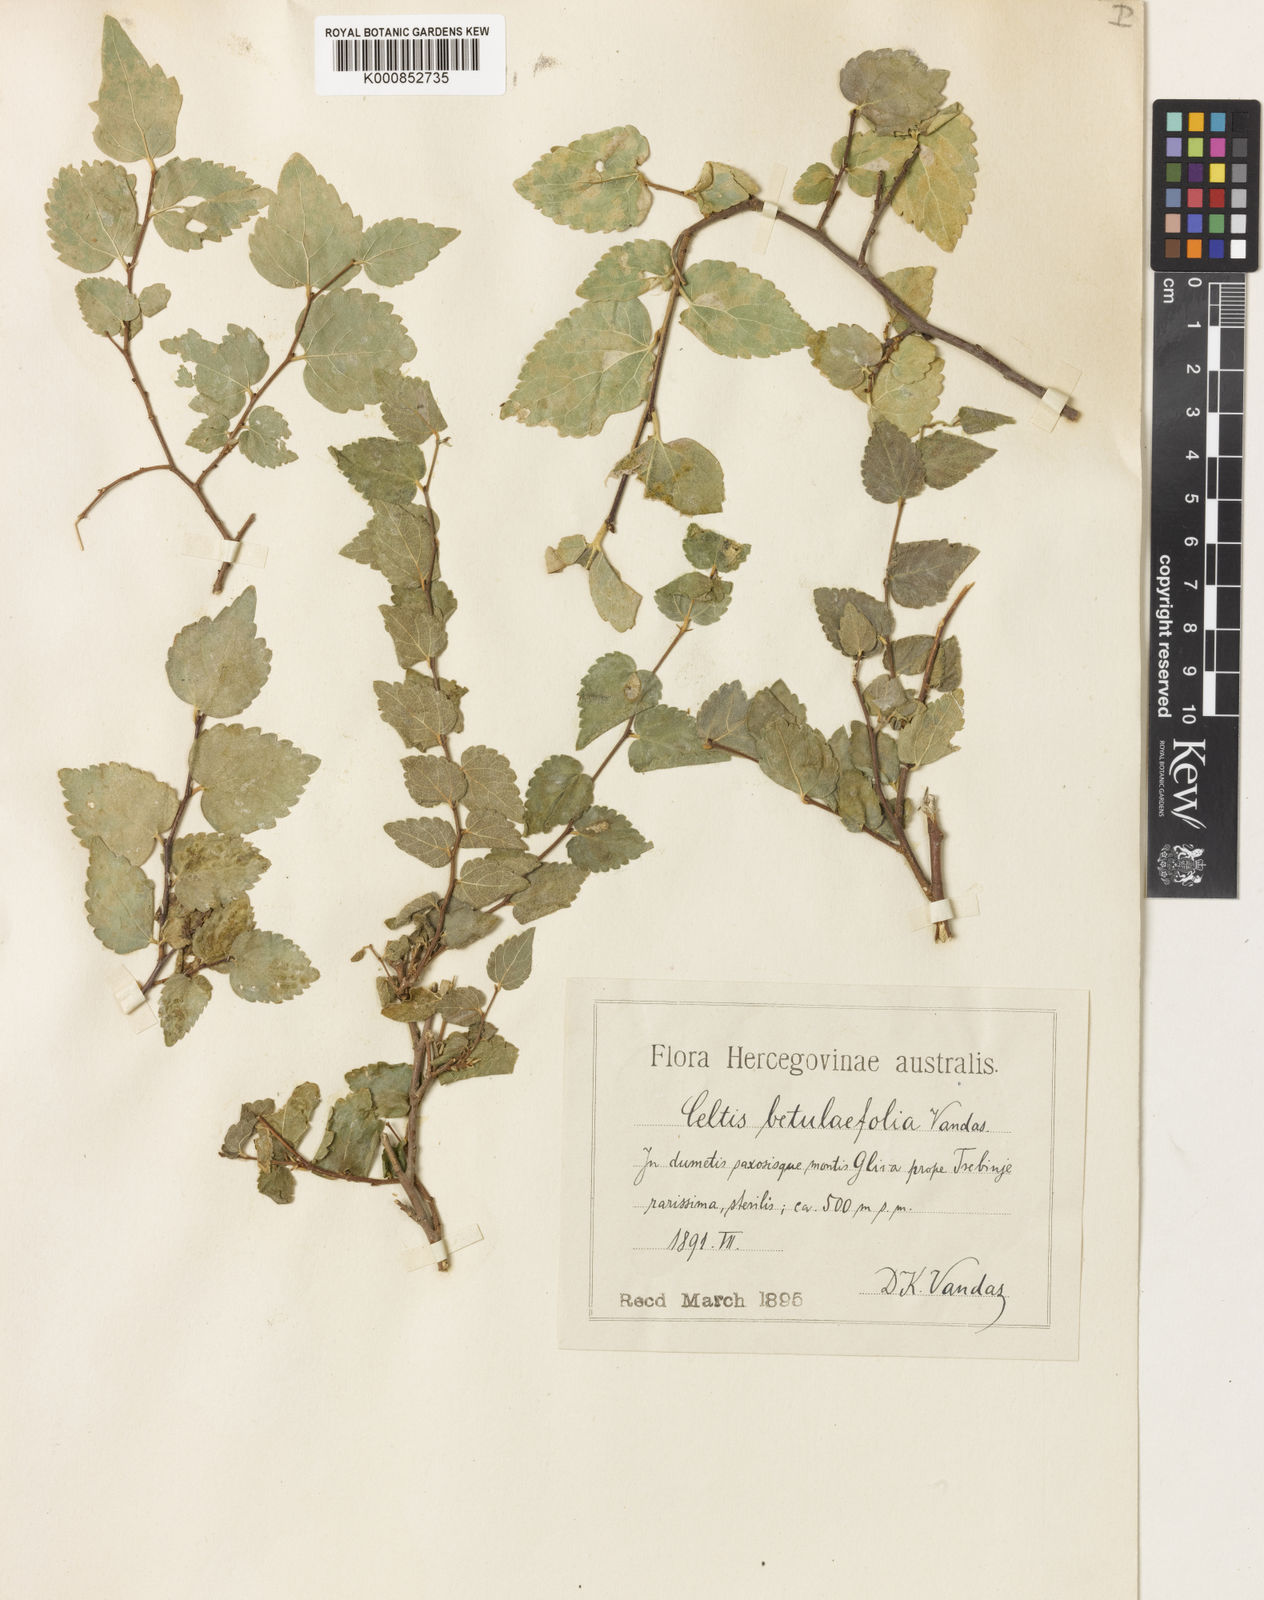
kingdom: Plantae
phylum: Tracheophyta
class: Magnoliopsida
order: Rosales
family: Cannabaceae
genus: Celtis
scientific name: Celtis australis
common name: European hackberry
